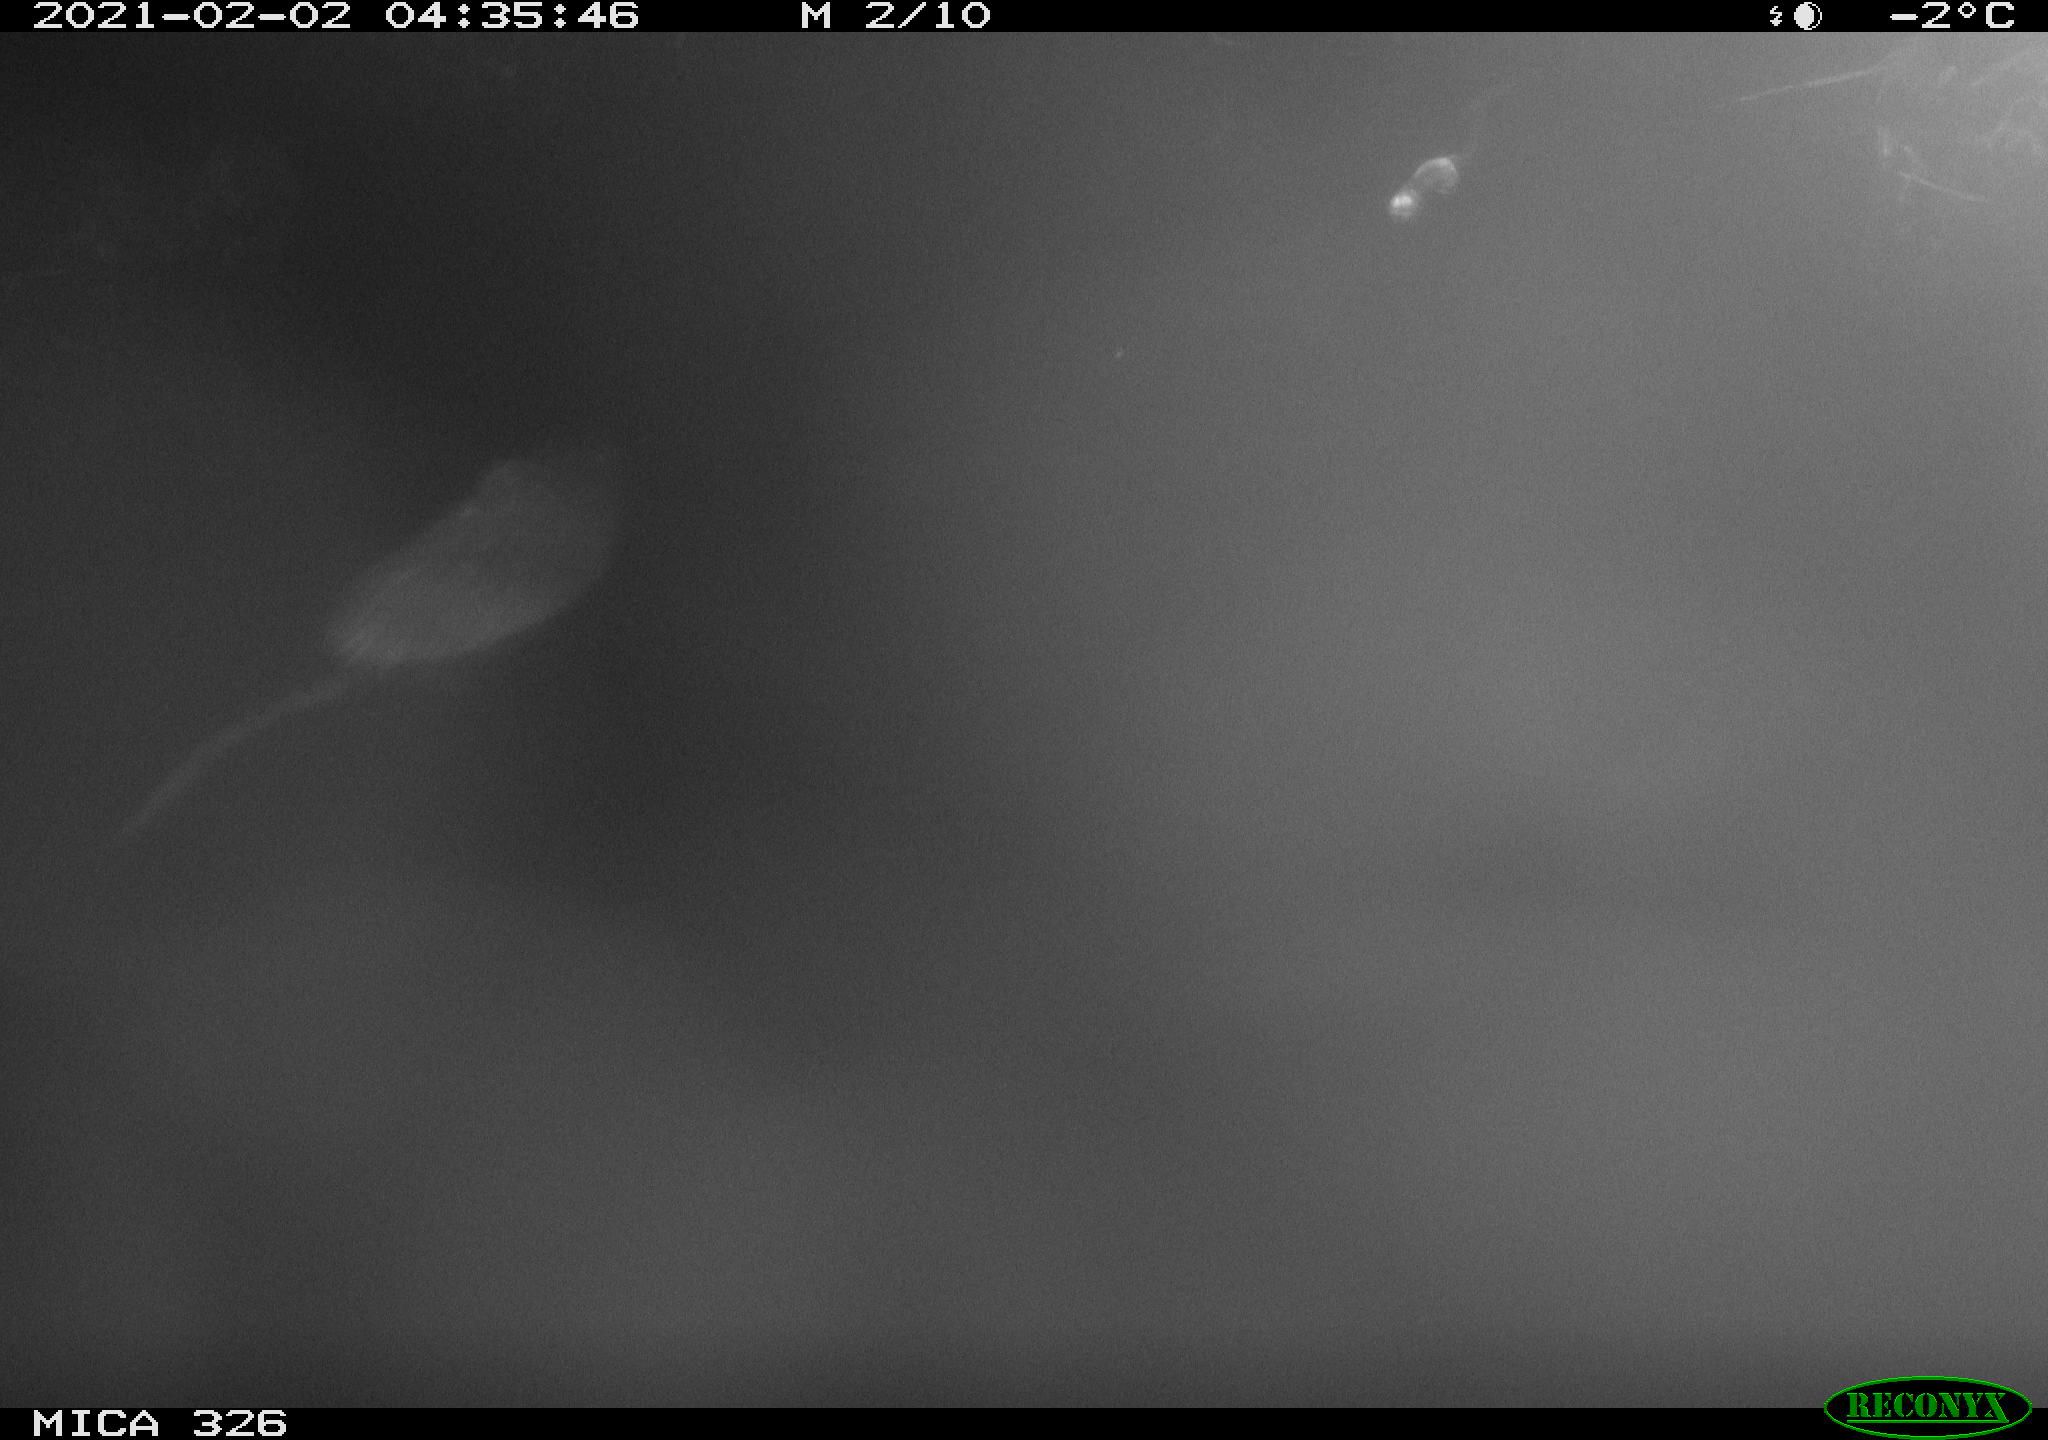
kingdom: Animalia
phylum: Chordata
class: Mammalia
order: Rodentia
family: Cricetidae
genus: Ondatra
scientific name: Ondatra zibethicus
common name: Muskrat
